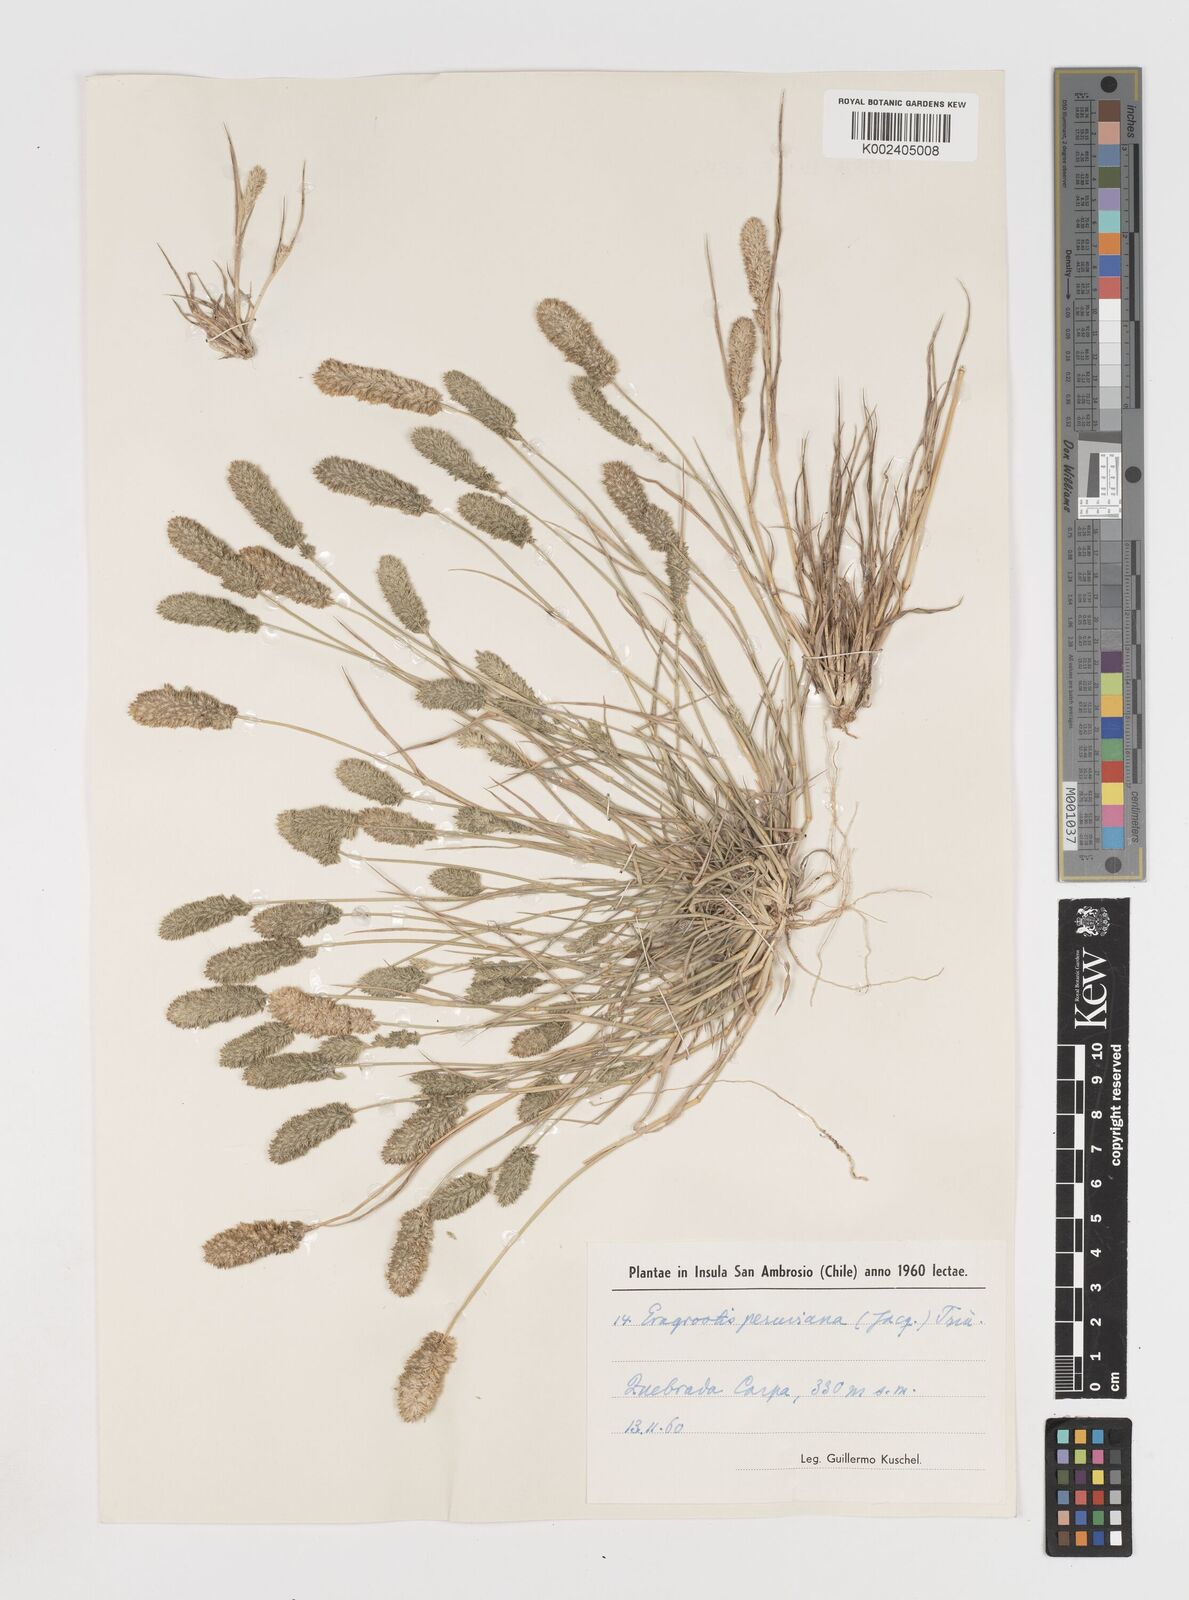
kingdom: Plantae
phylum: Tracheophyta
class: Liliopsida
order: Poales
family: Poaceae
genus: Eragrostis
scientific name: Eragrostis peruviana
